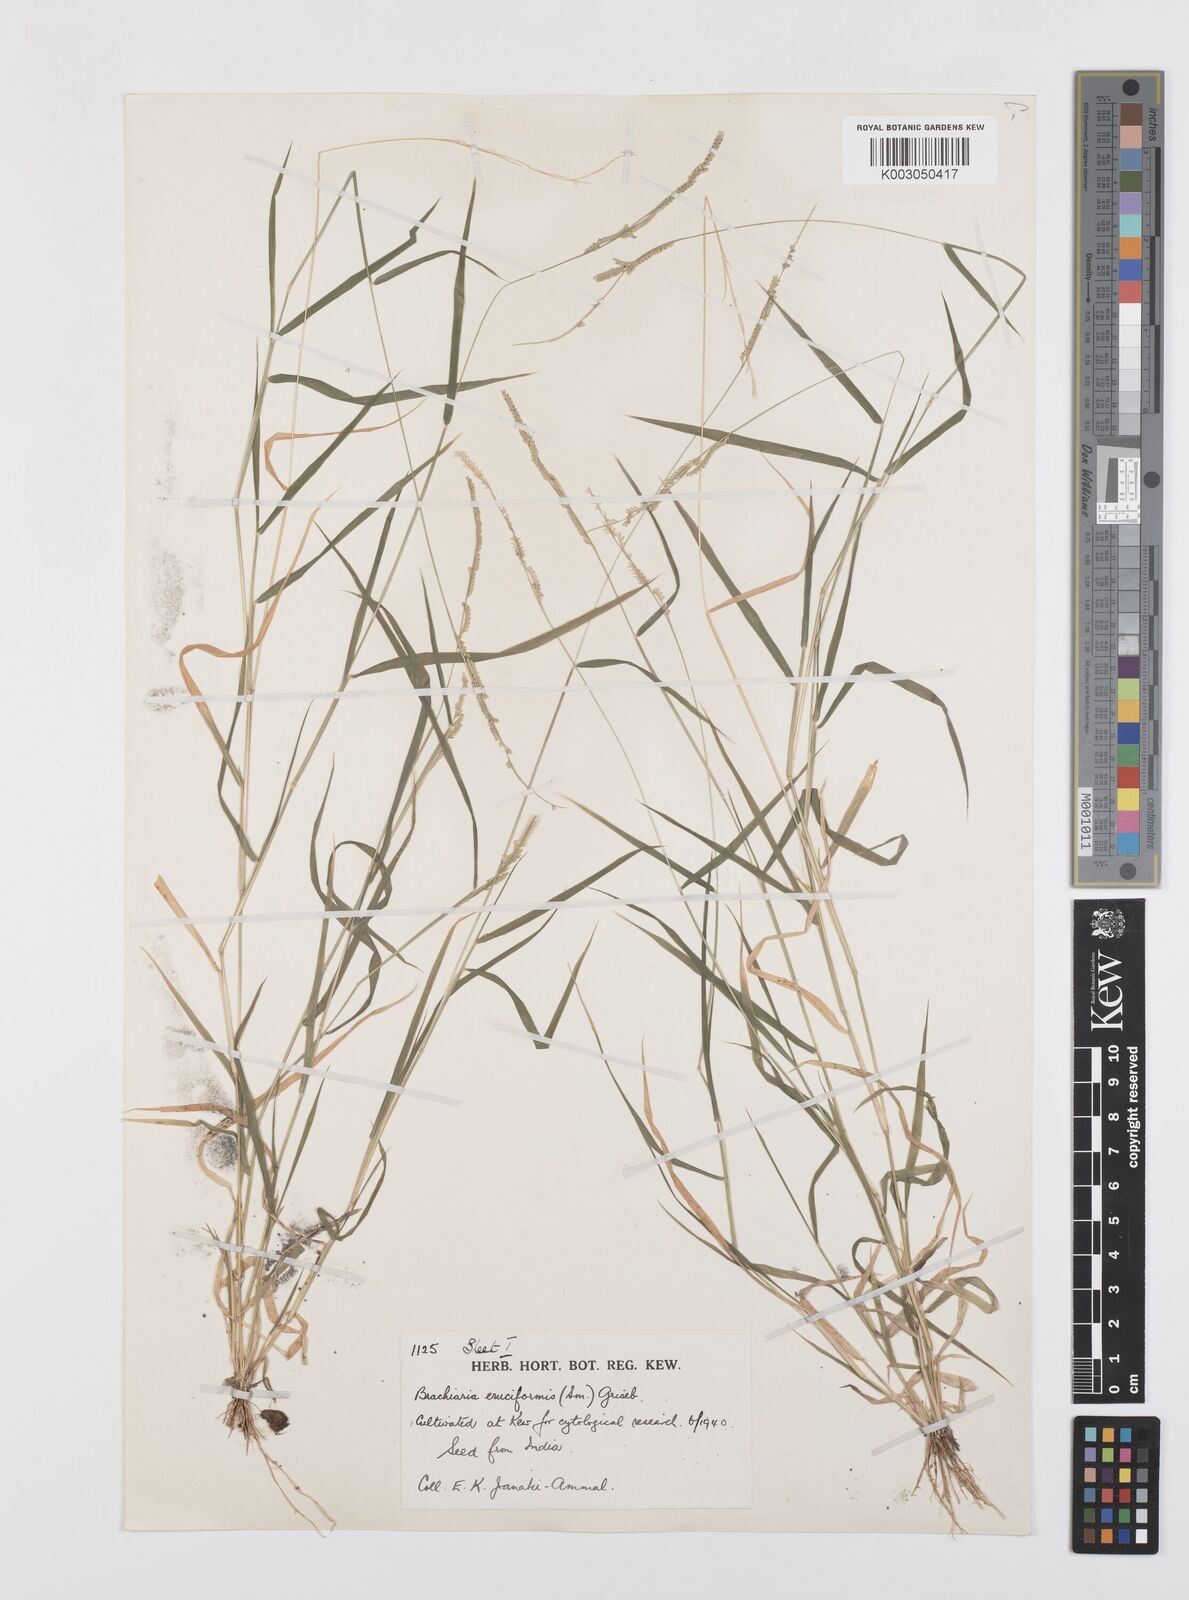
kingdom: Plantae
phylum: Tracheophyta
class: Liliopsida
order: Poales
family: Poaceae
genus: Moorochloa
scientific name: Moorochloa eruciformis
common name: Sweet signalgrass
